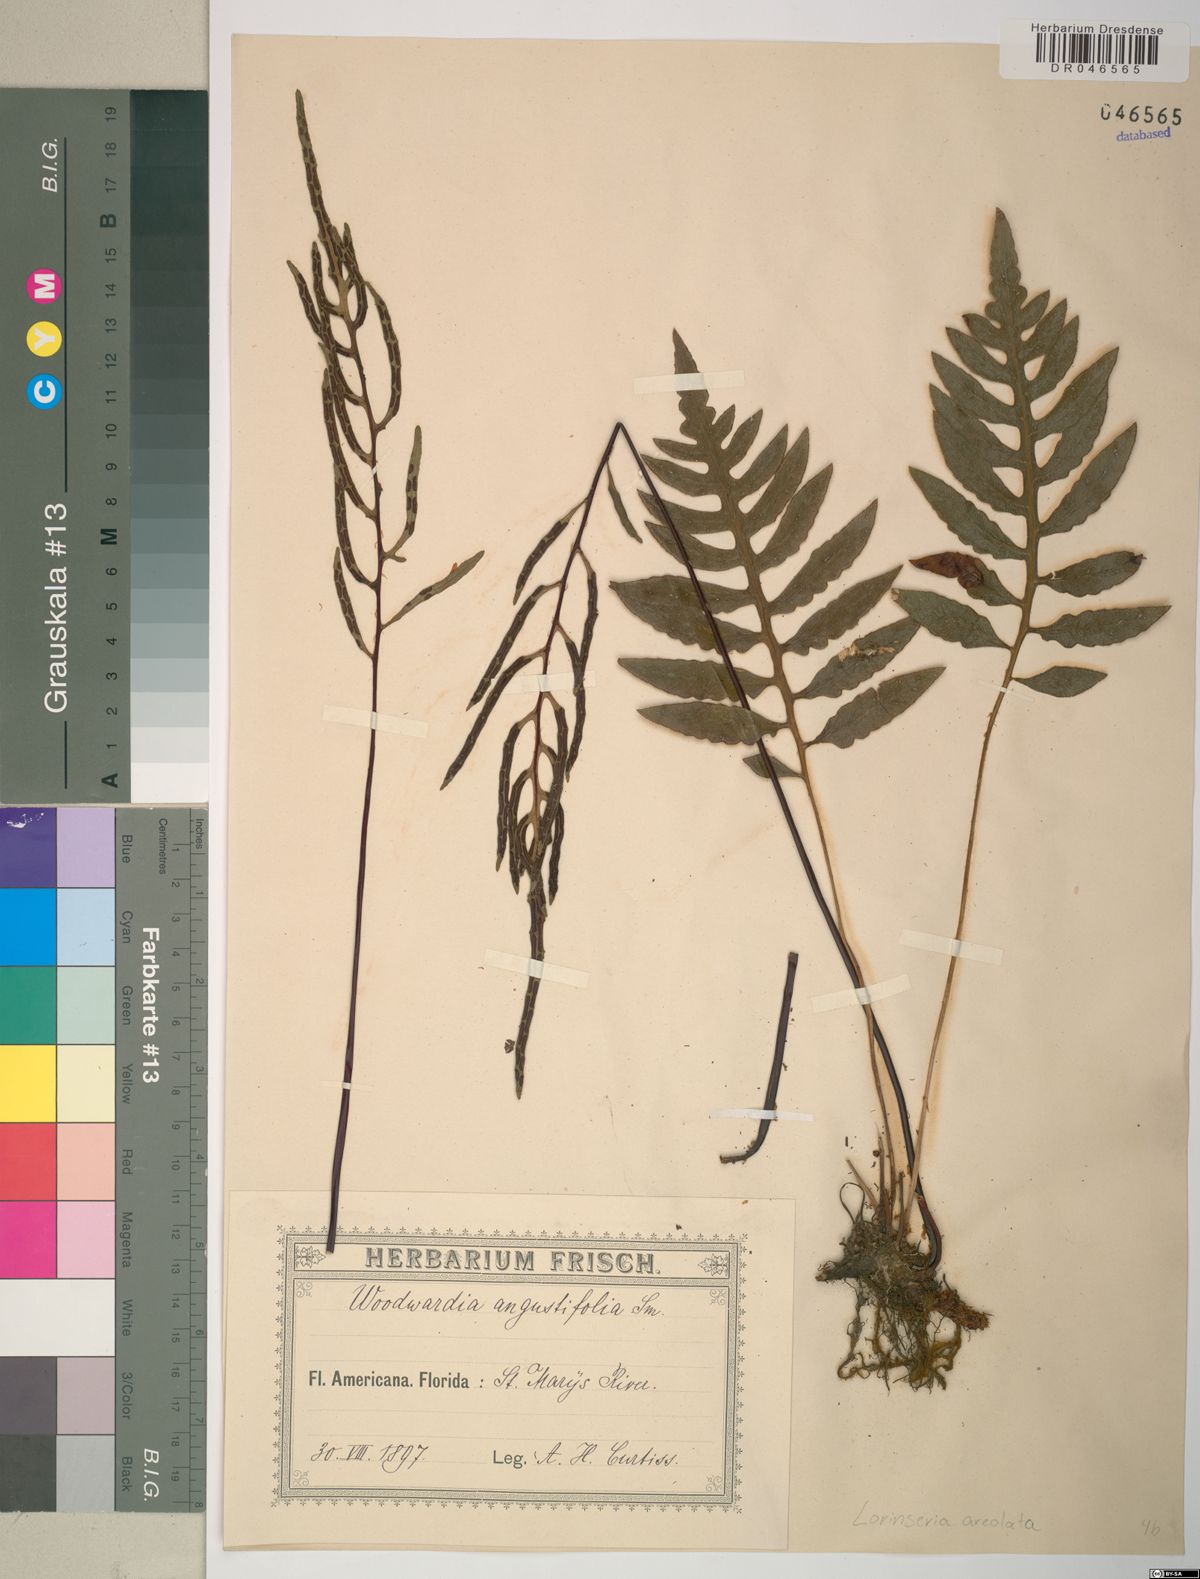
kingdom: Plantae
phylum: Tracheophyta
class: Polypodiopsida
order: Polypodiales
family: Blechnaceae
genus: Lorinseria
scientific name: Lorinseria areolata
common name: Dwarf chain fern
